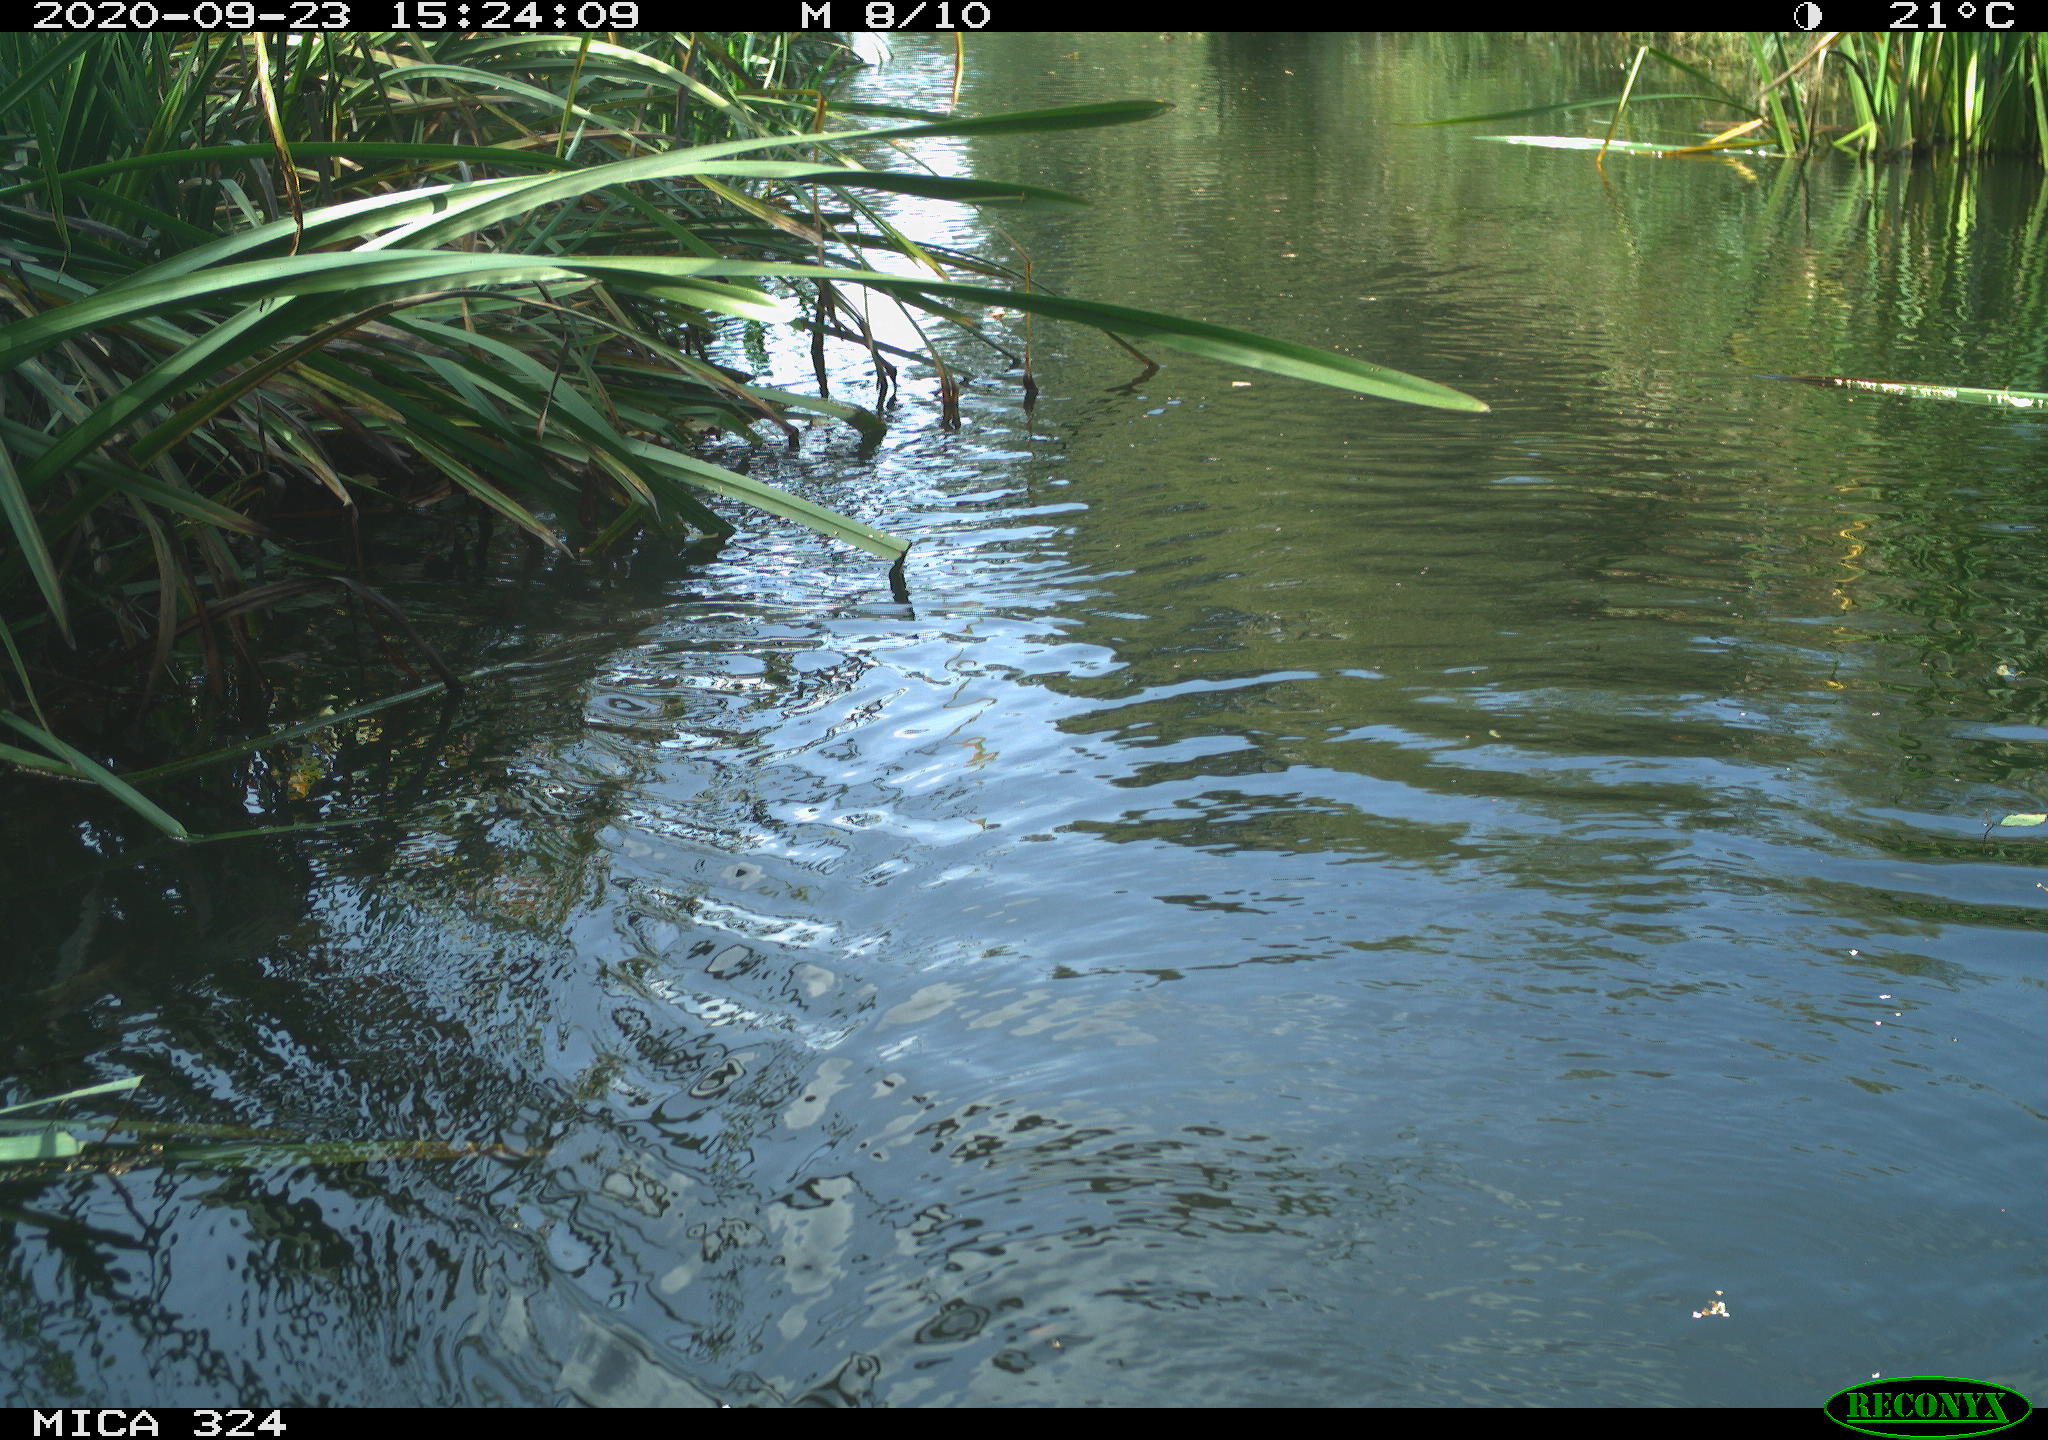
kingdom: Animalia
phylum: Chordata
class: Mammalia
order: Rodentia
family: Cricetidae
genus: Ondatra
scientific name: Ondatra zibethicus
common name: Muskrat
